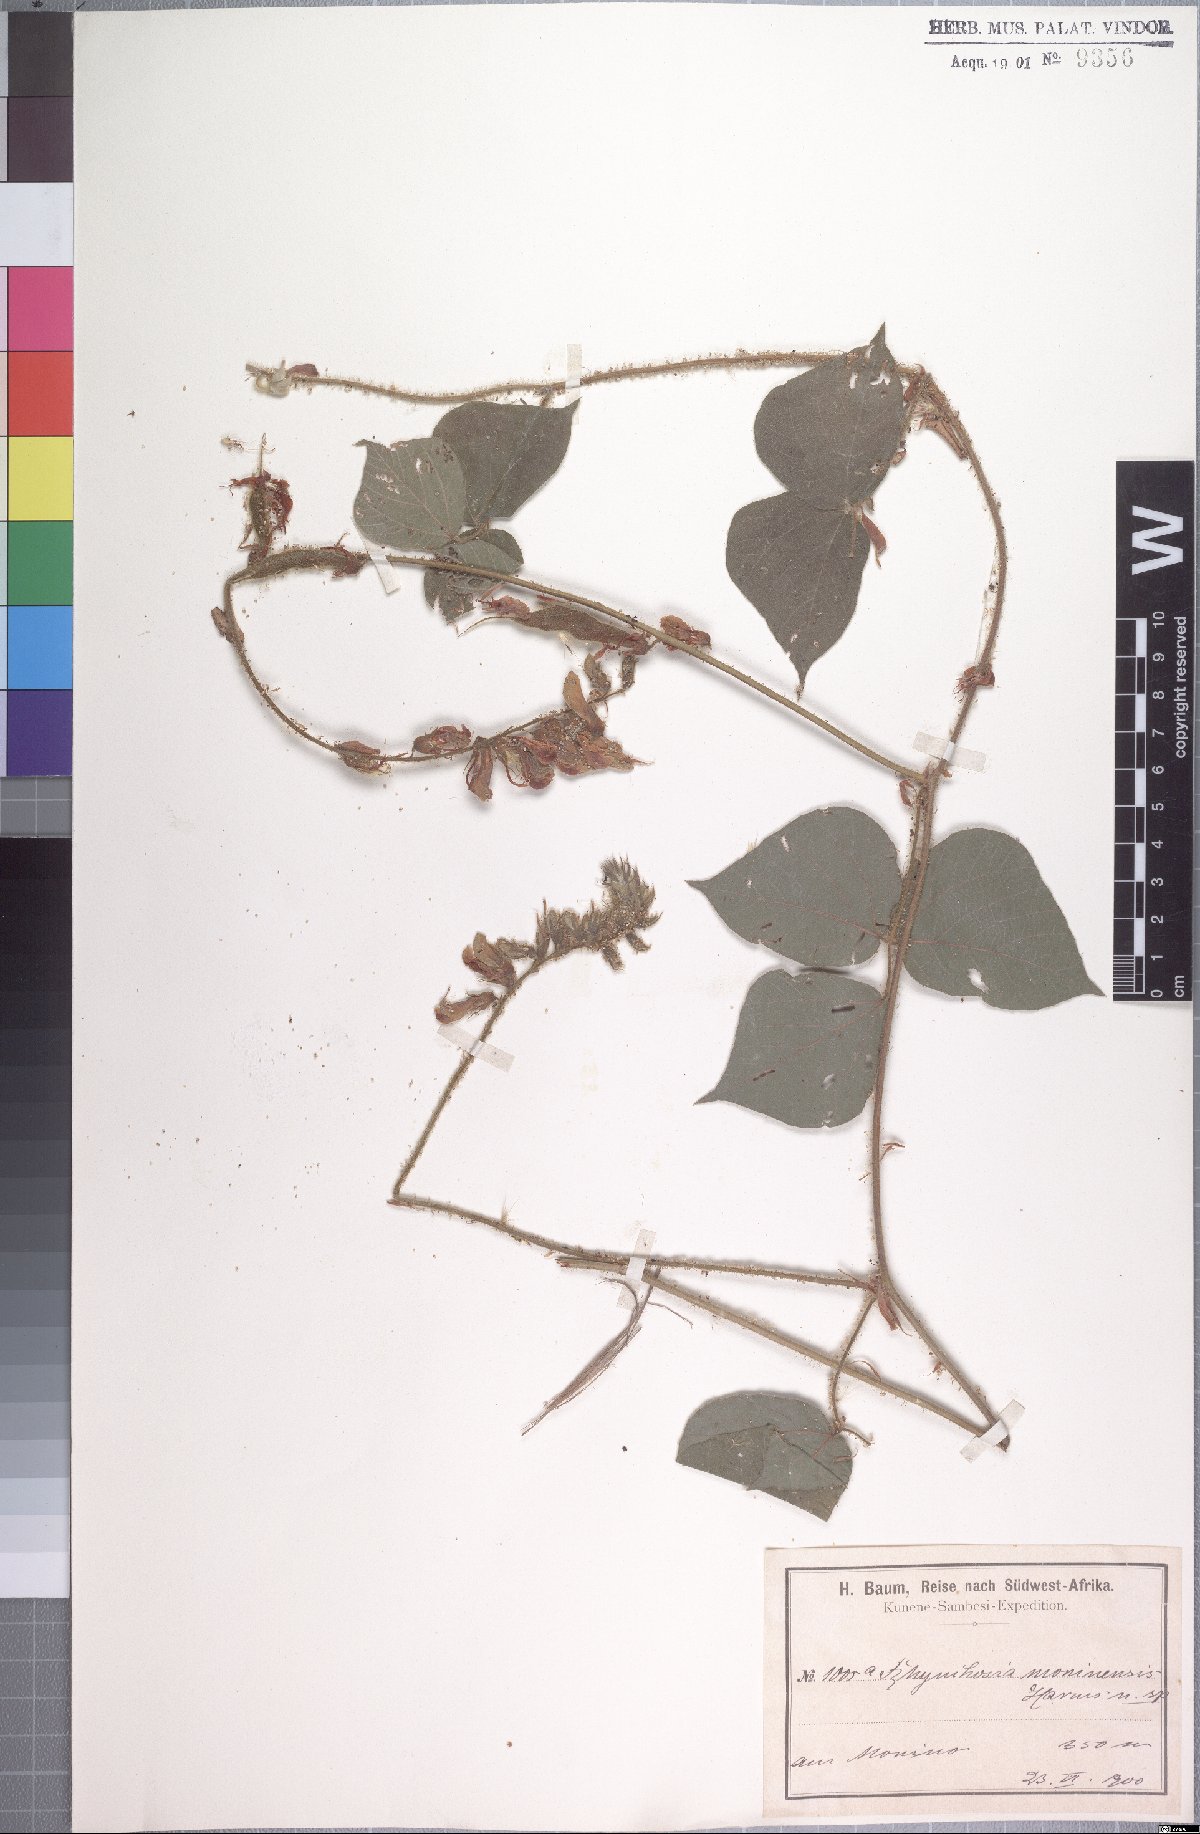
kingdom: Plantae
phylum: Tracheophyta
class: Magnoliopsida
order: Fabales
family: Fabaceae
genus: Rhynchosia
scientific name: Rhynchosia luteola
